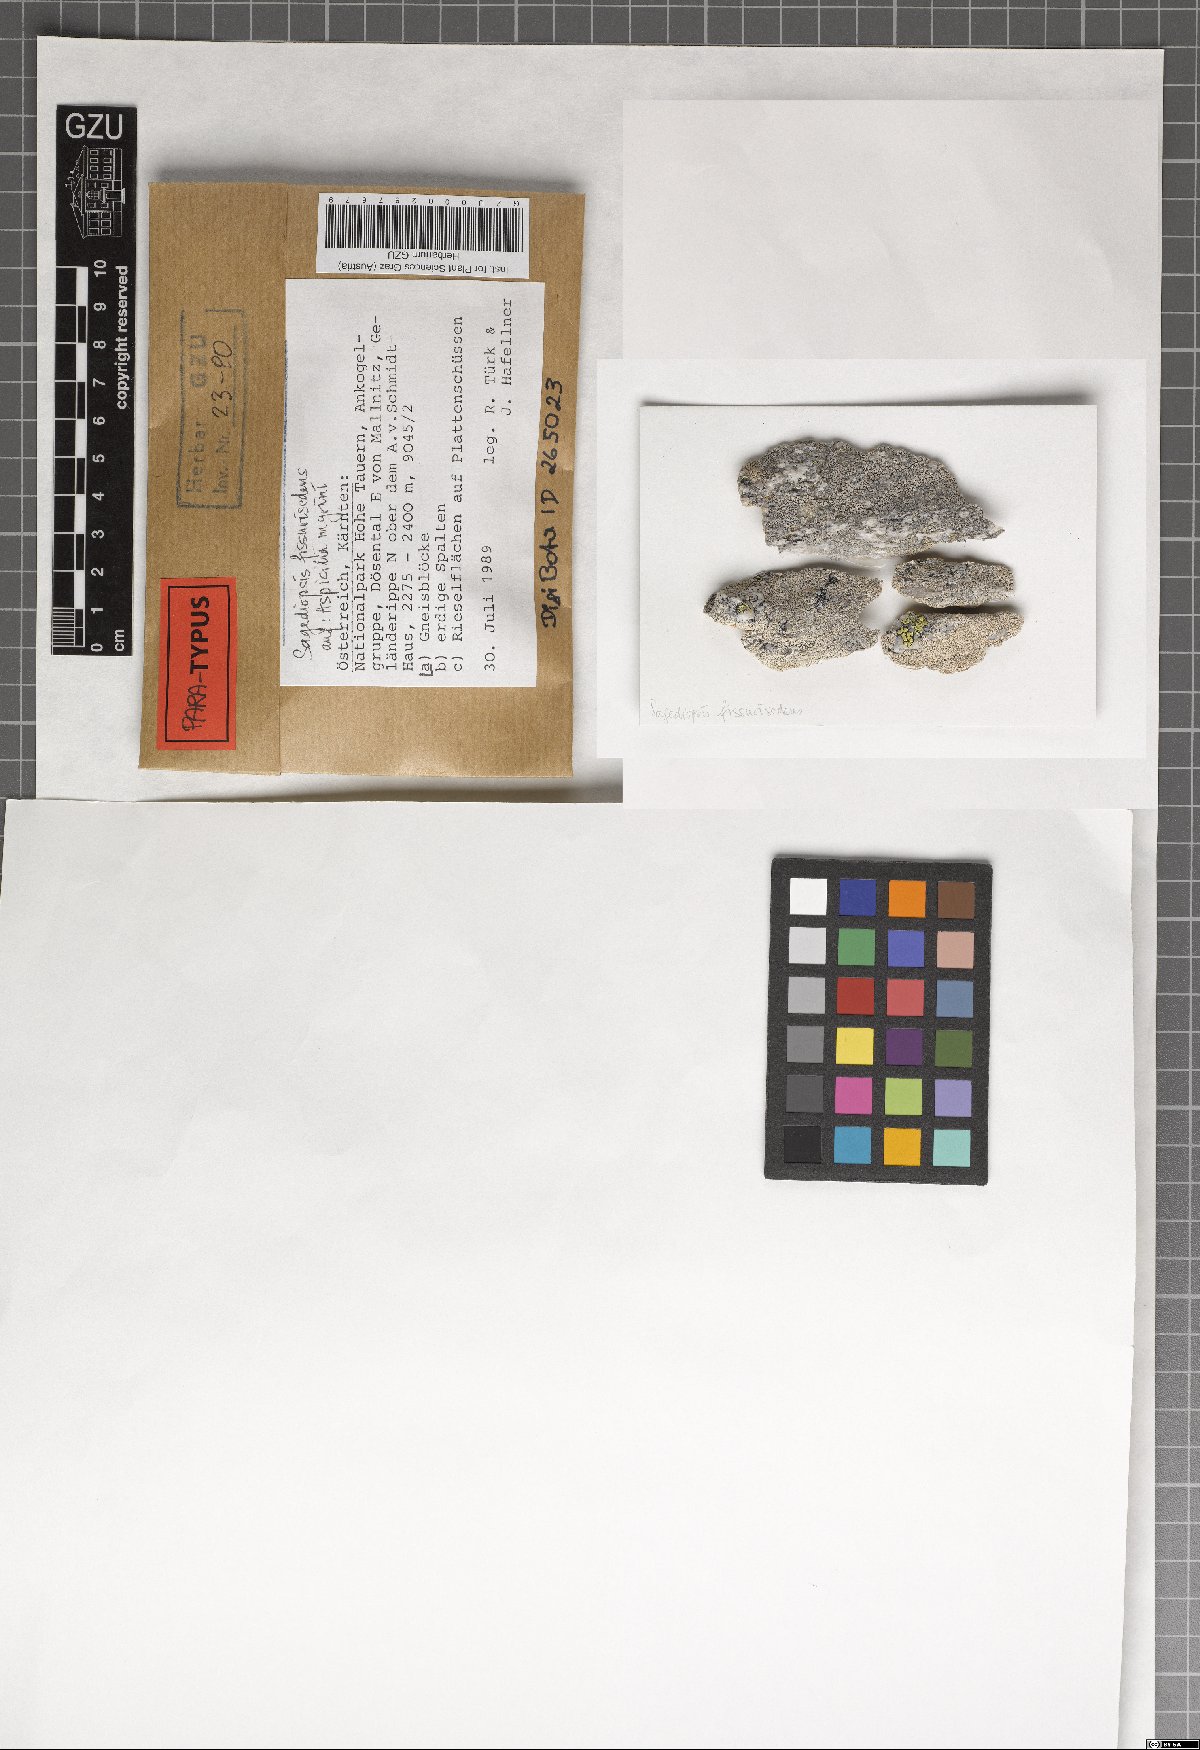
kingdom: Fungi
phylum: Ascomycota
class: Eurotiomycetes
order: Verrucariales
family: Adelococcaceae
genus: Sagediopsis
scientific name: Sagediopsis fissurisedens
